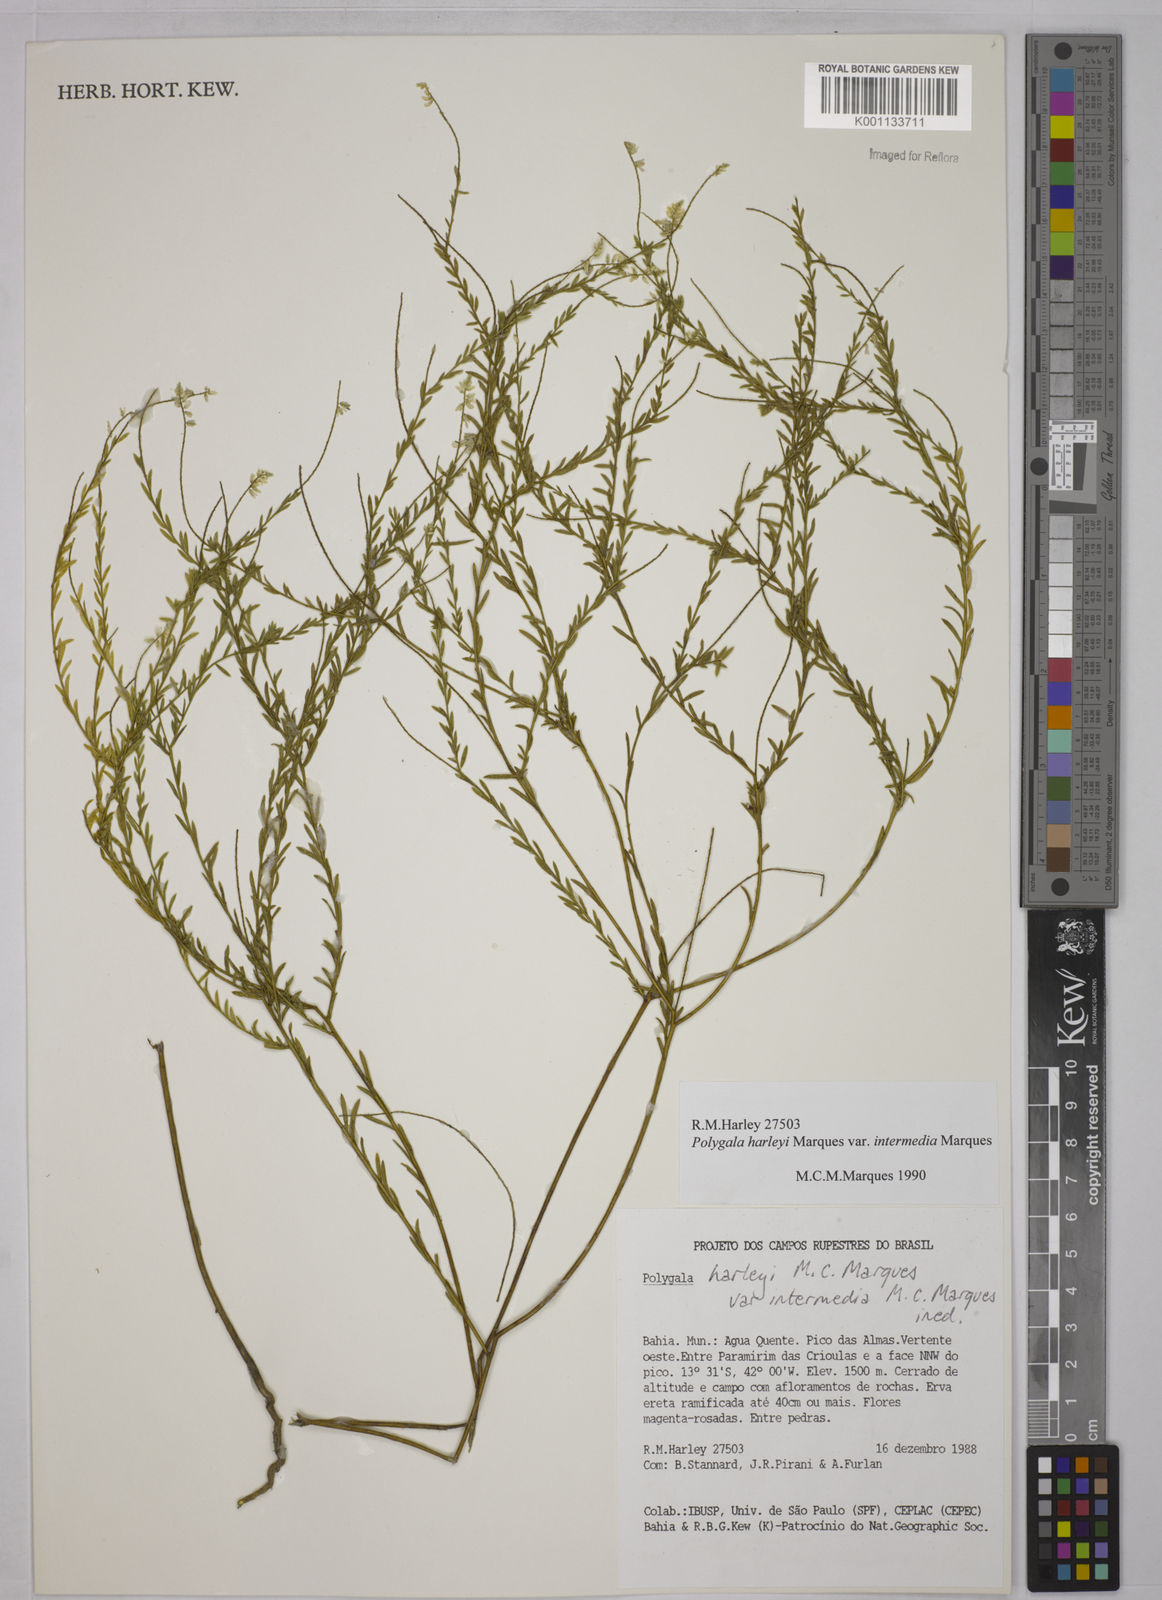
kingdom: Plantae
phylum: Tracheophyta
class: Magnoliopsida
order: Fabales
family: Polygalaceae
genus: Polygala
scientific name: Polygala
